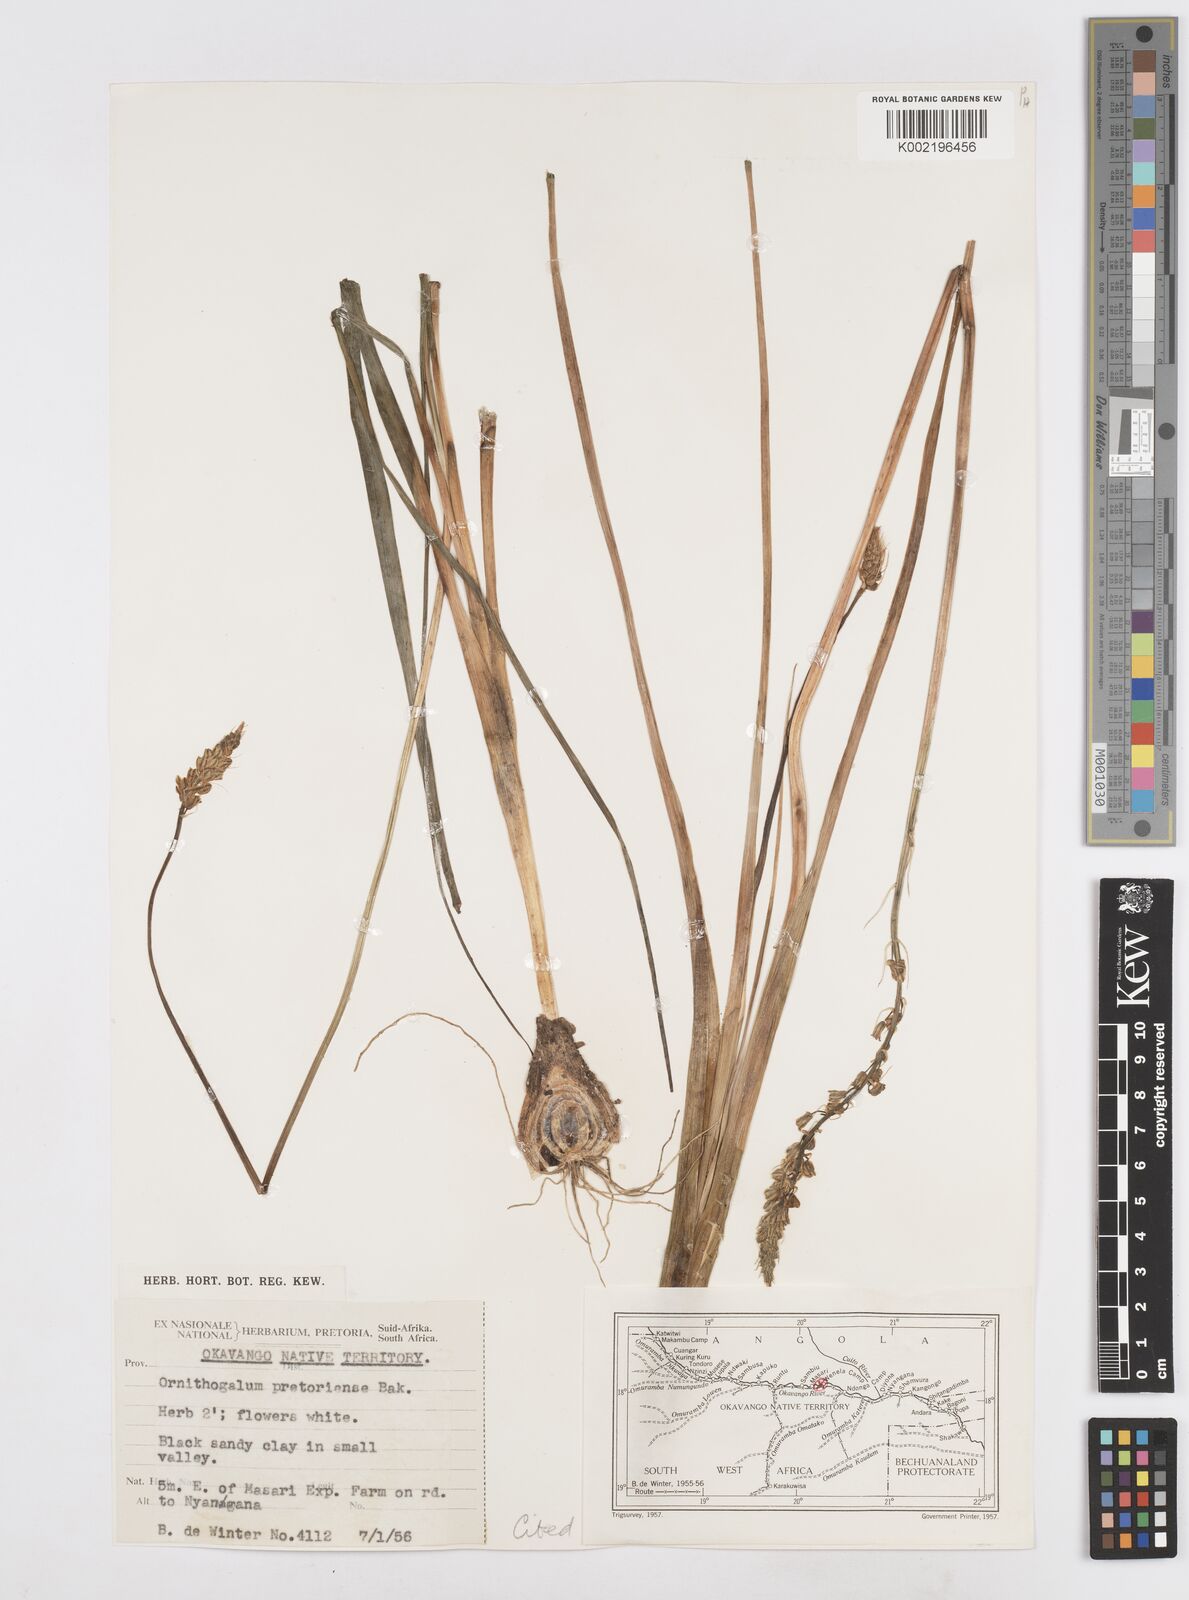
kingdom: Plantae
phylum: Tracheophyta
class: Liliopsida
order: Asparagales
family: Asparagaceae
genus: Albuca
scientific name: Albuca virens
